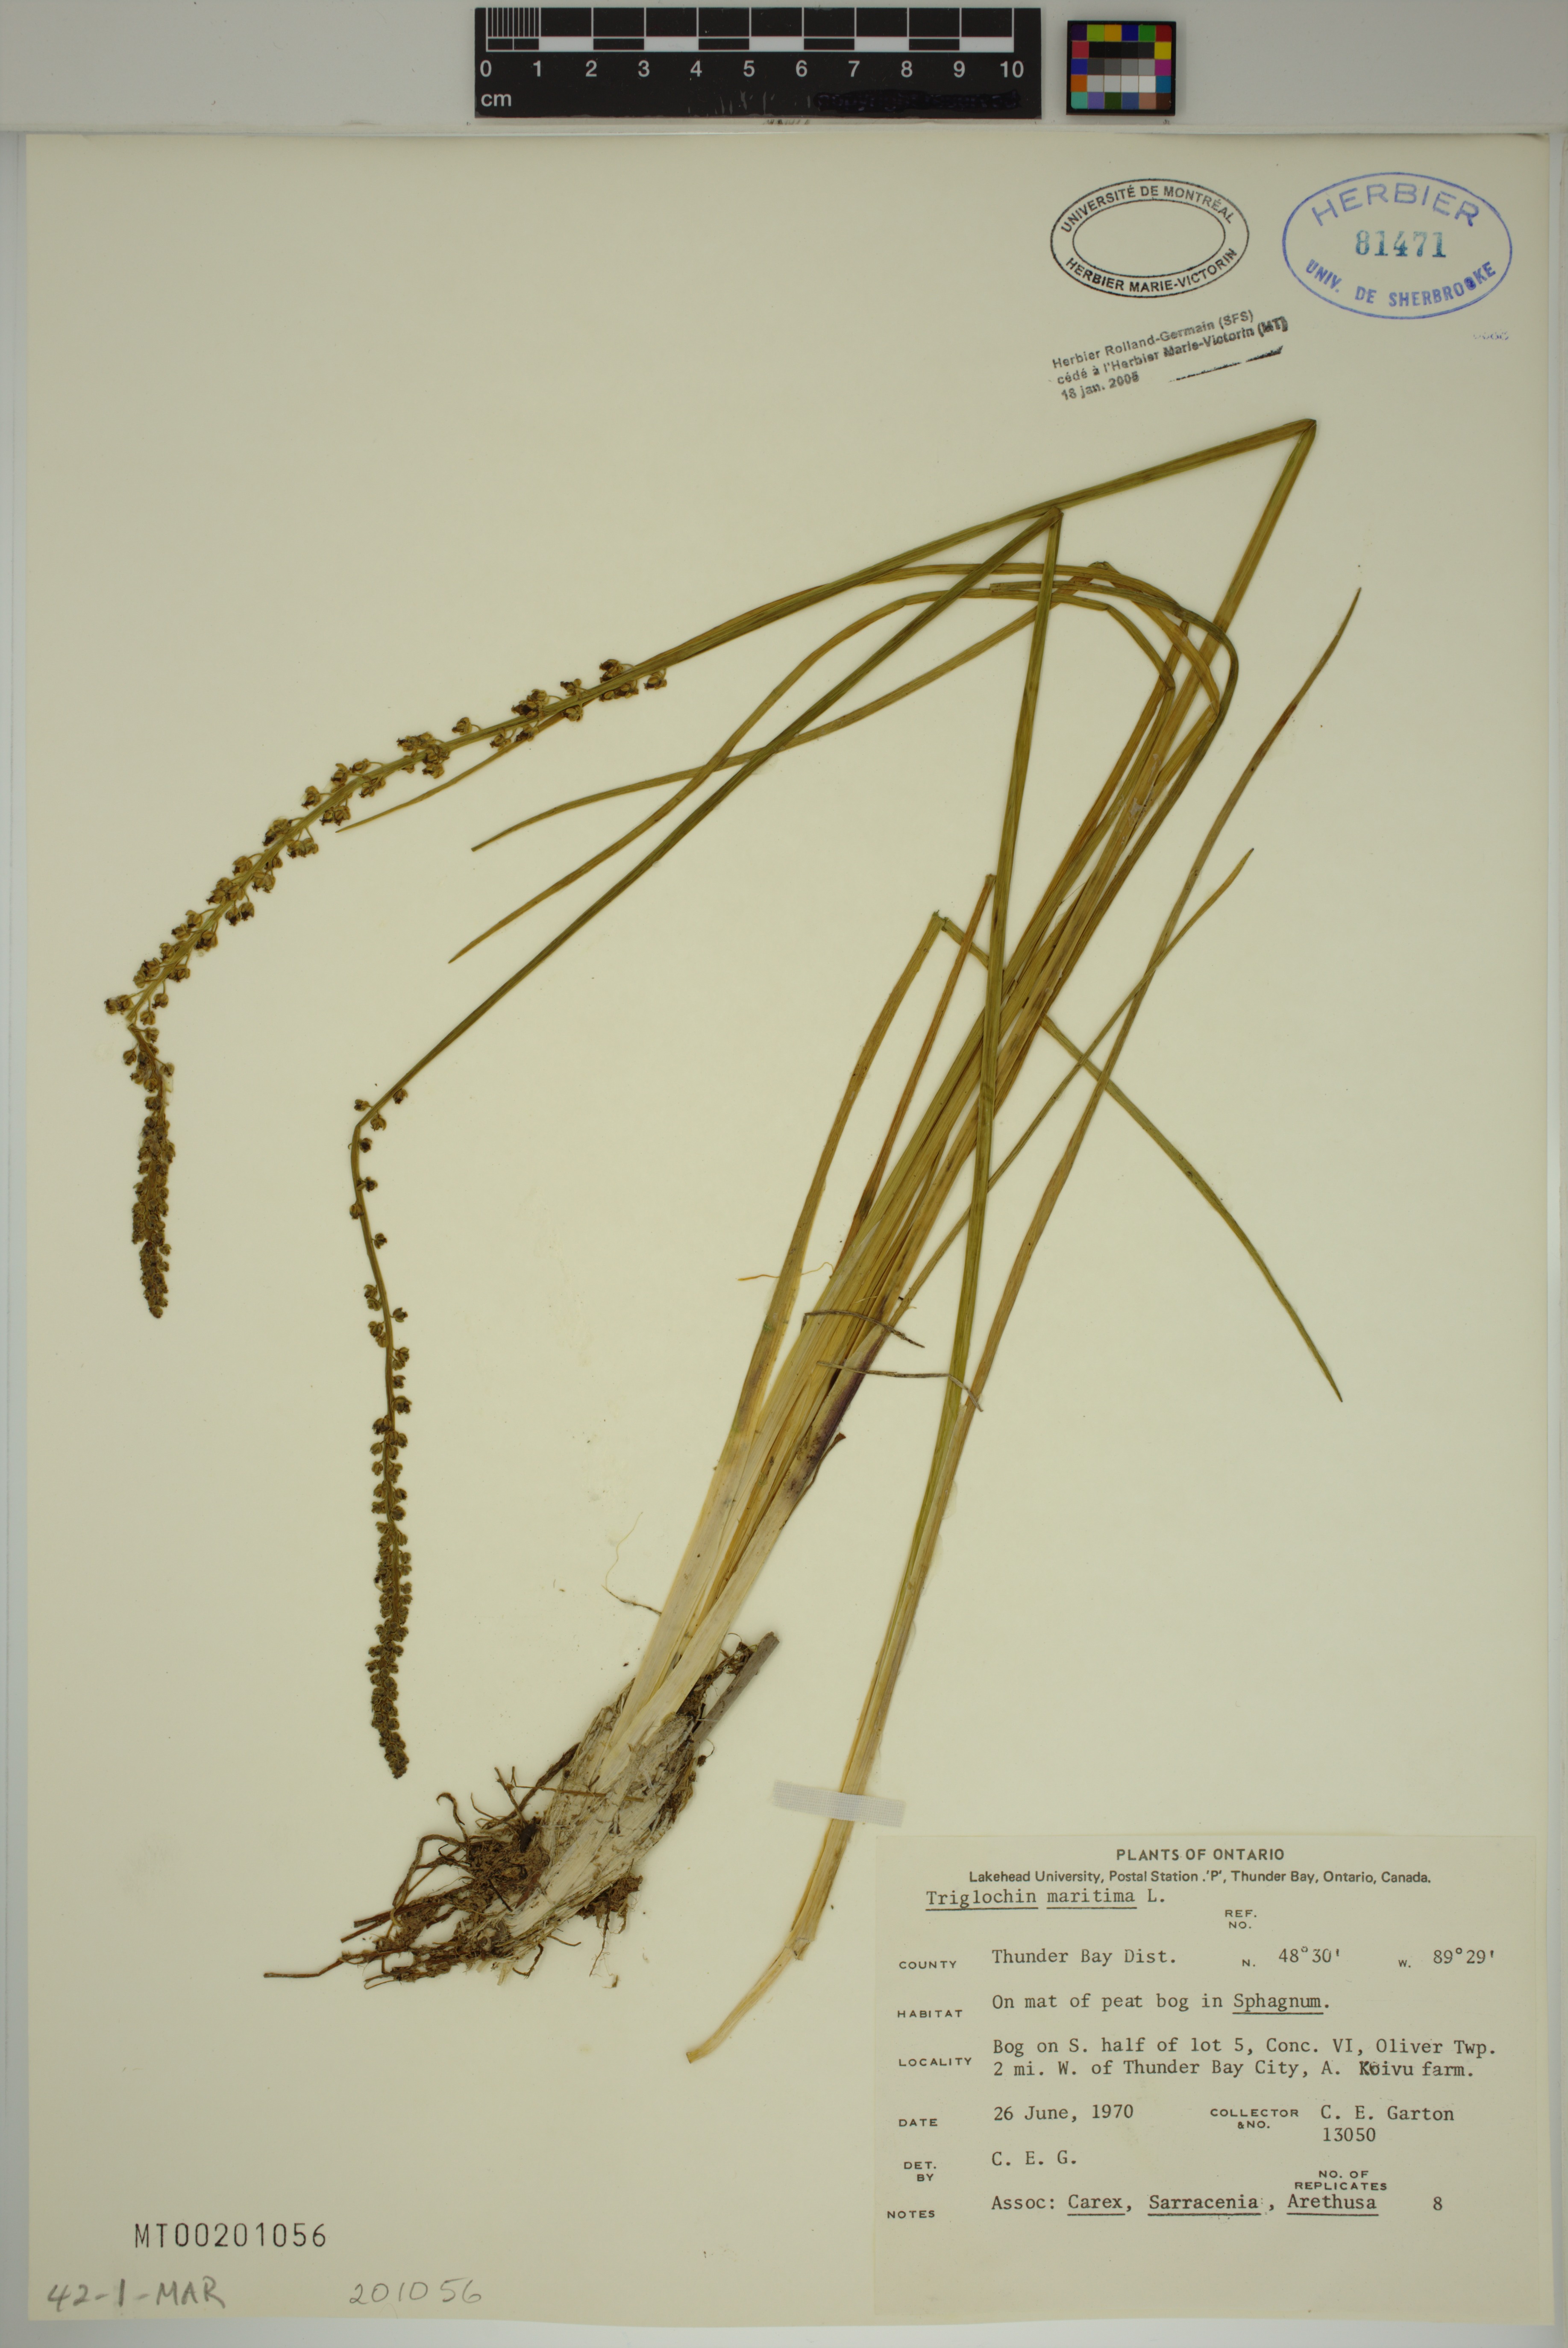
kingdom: Plantae
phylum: Tracheophyta
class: Liliopsida
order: Alismatales
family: Juncaginaceae
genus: Triglochin
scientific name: Triglochin maritima
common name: Sea arrowgrass
